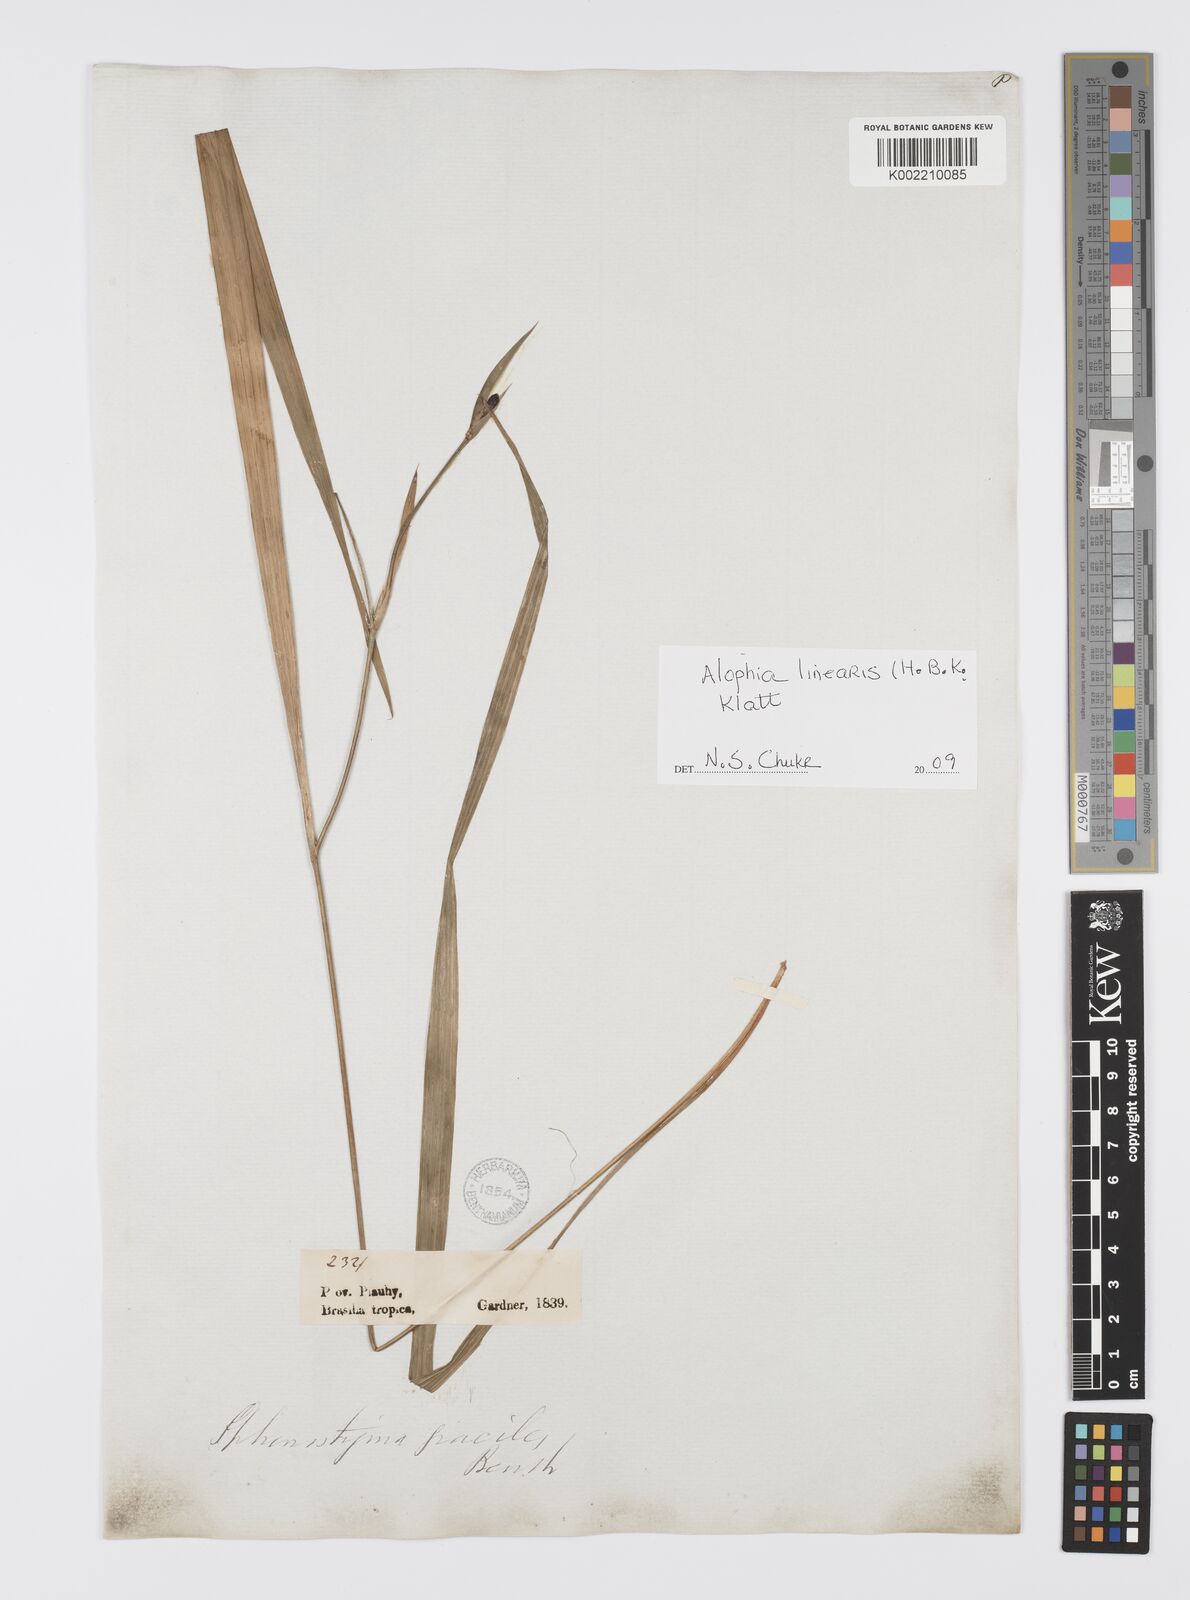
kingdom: Plantae
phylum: Tracheophyta
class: Liliopsida
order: Asparagales
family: Iridaceae
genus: Larentia
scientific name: Larentia linearis
